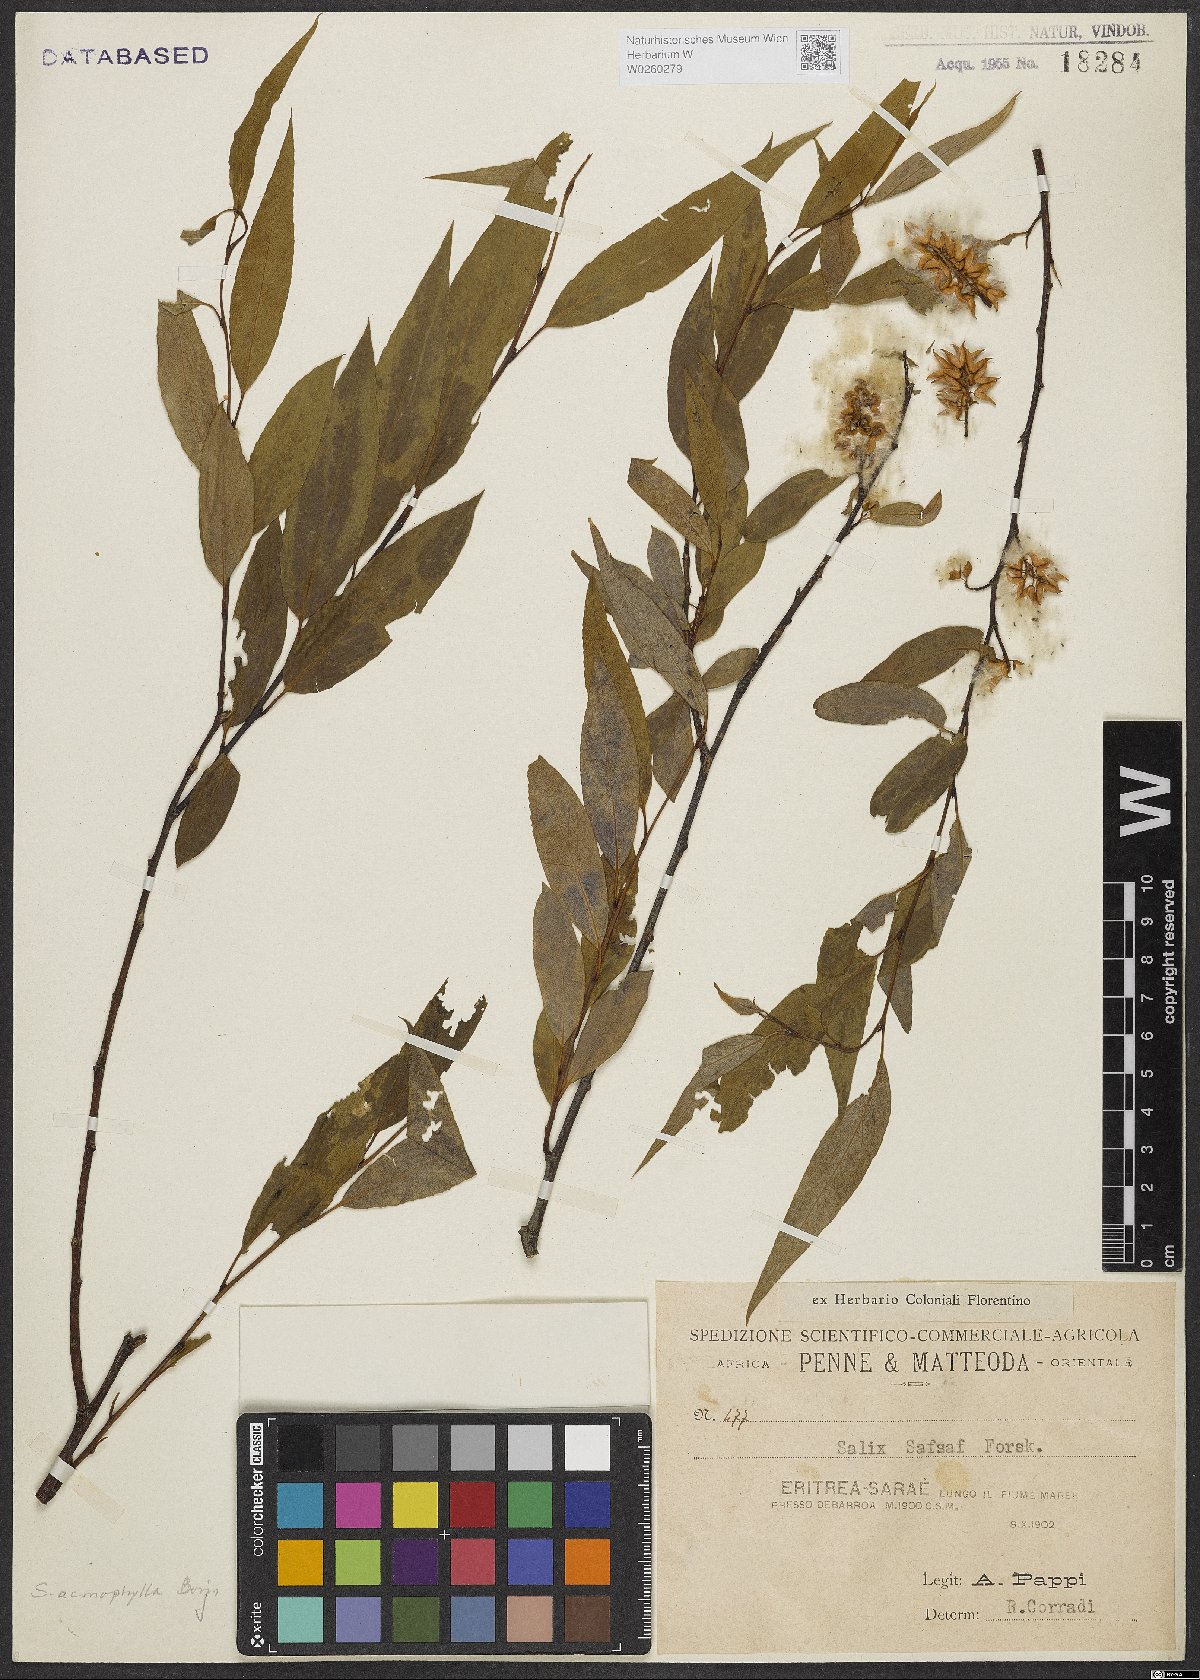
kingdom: Plantae
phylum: Tracheophyta
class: Magnoliopsida
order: Malpighiales
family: Salicaceae
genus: Salix
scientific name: Salix acmophylla
